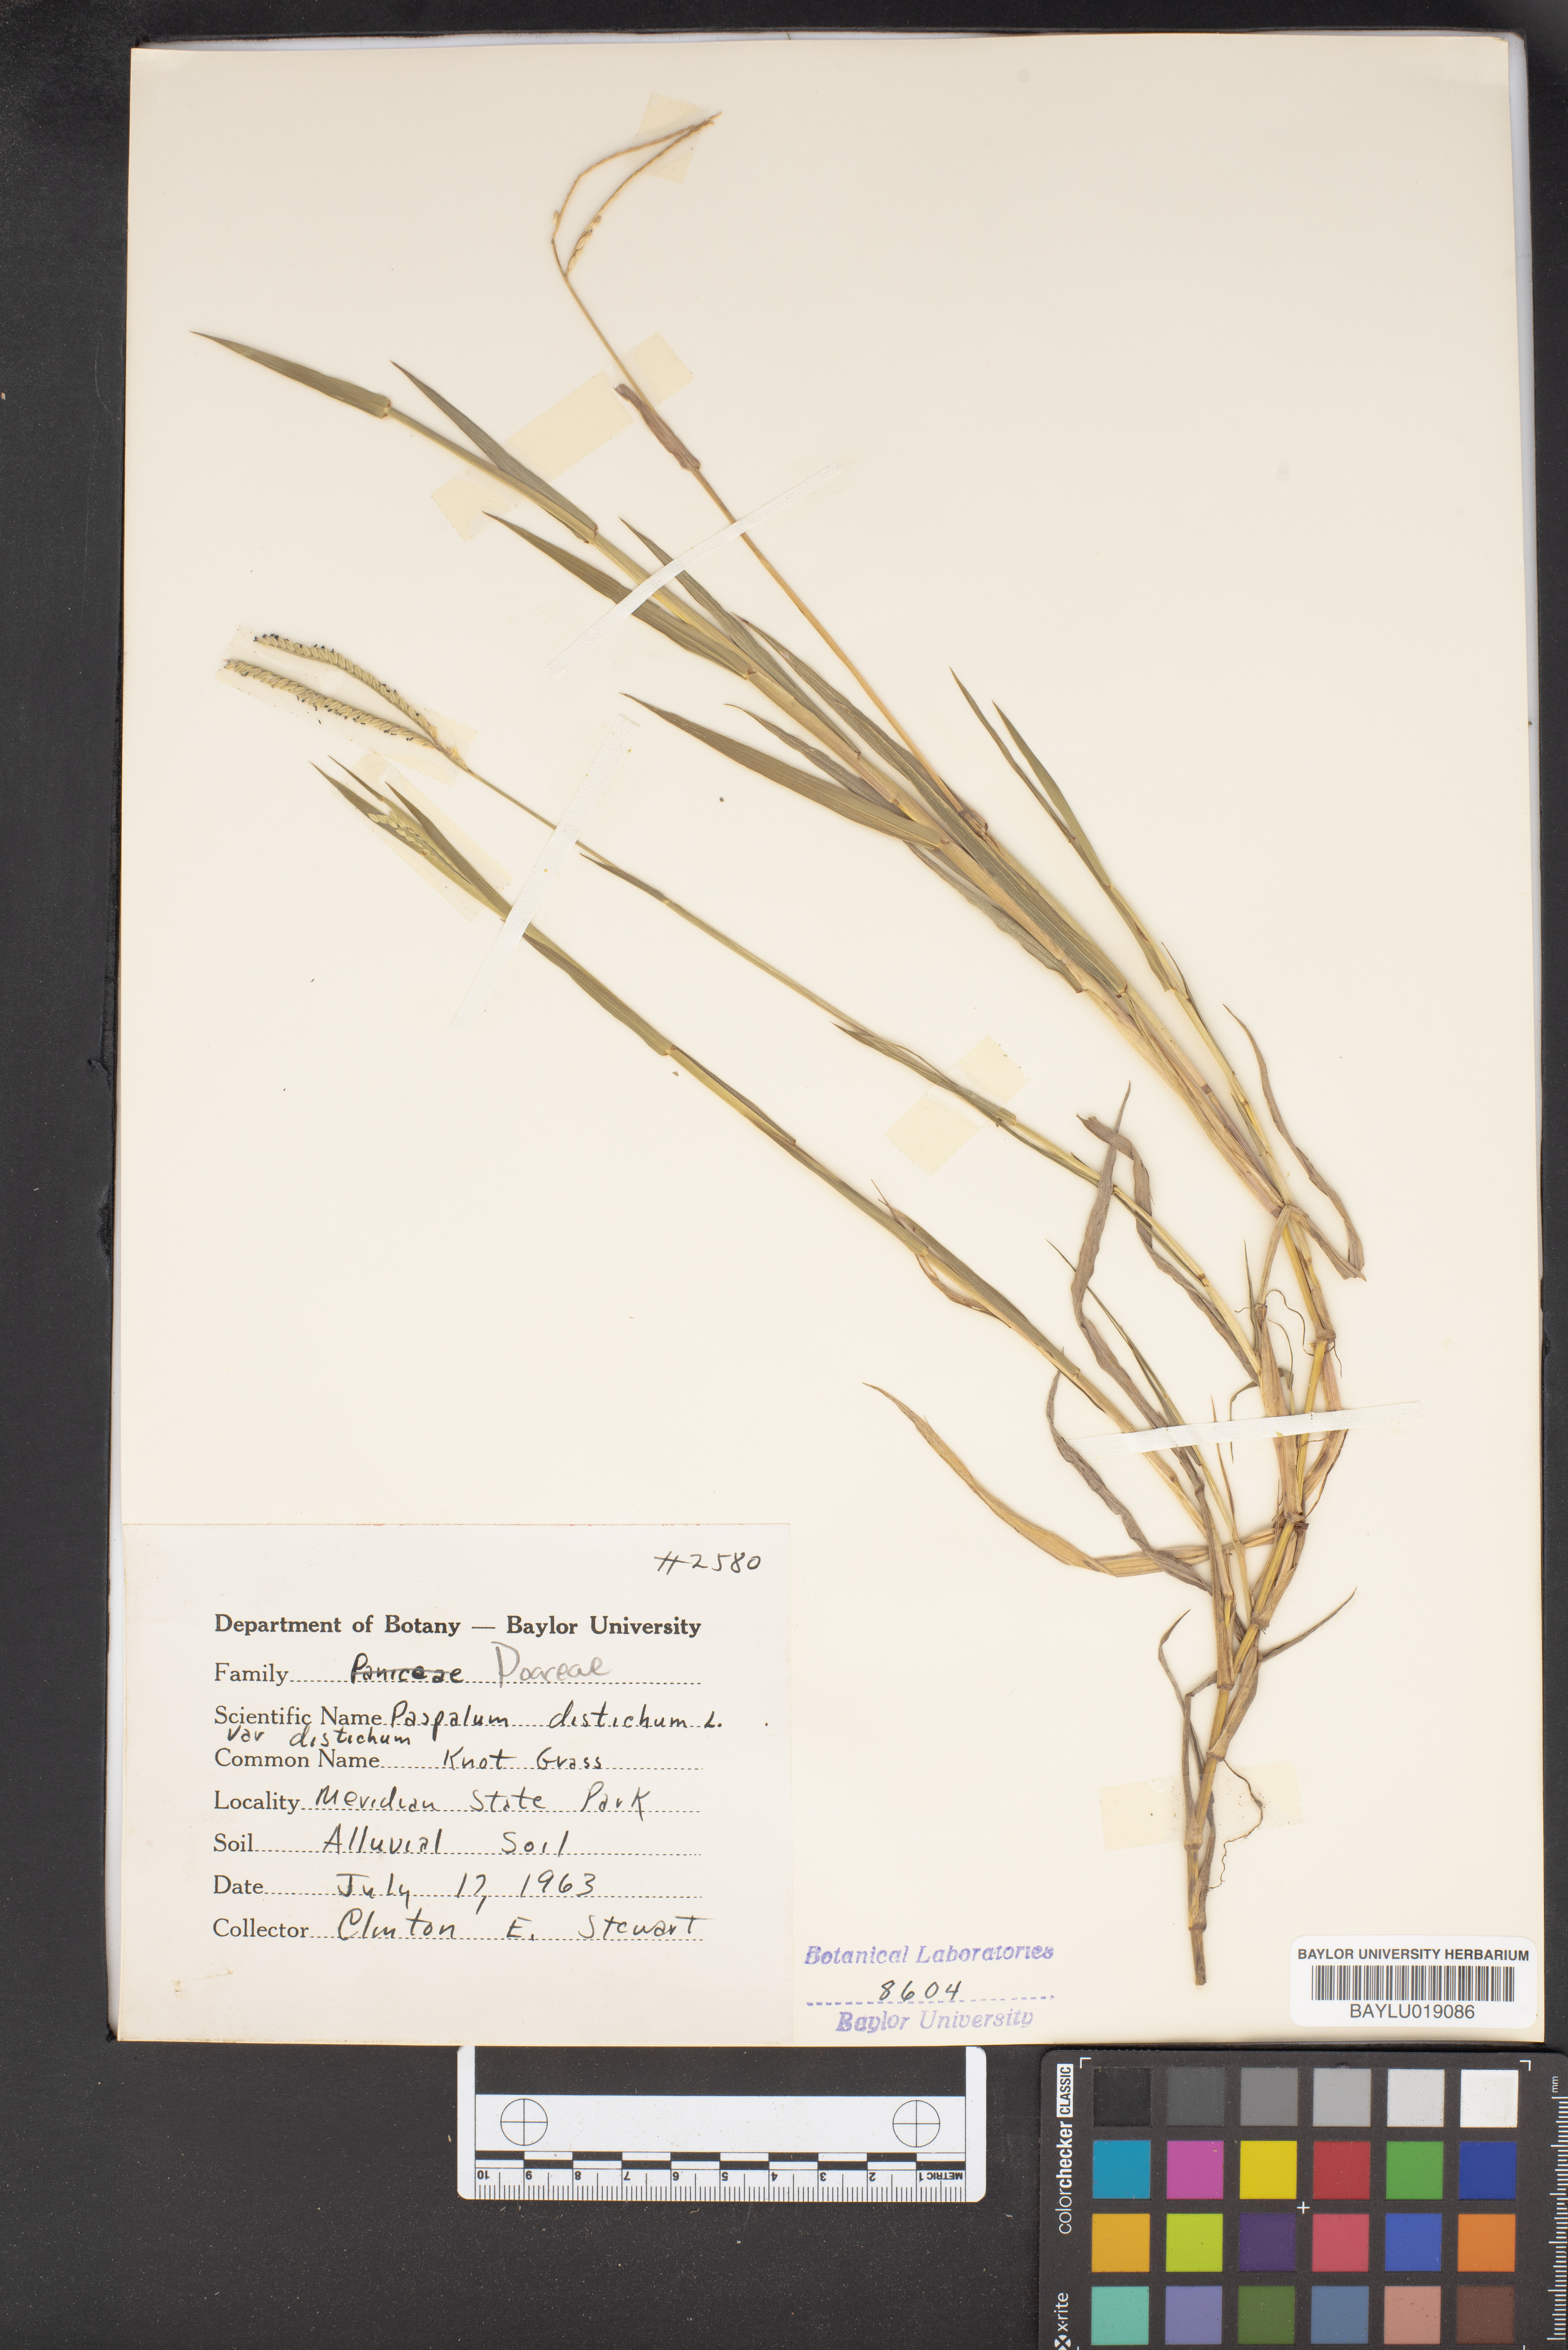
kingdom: Plantae
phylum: Tracheophyta
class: Liliopsida
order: Poales
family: Poaceae
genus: Paspalum
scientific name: Paspalum distichum
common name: Knotgrass
